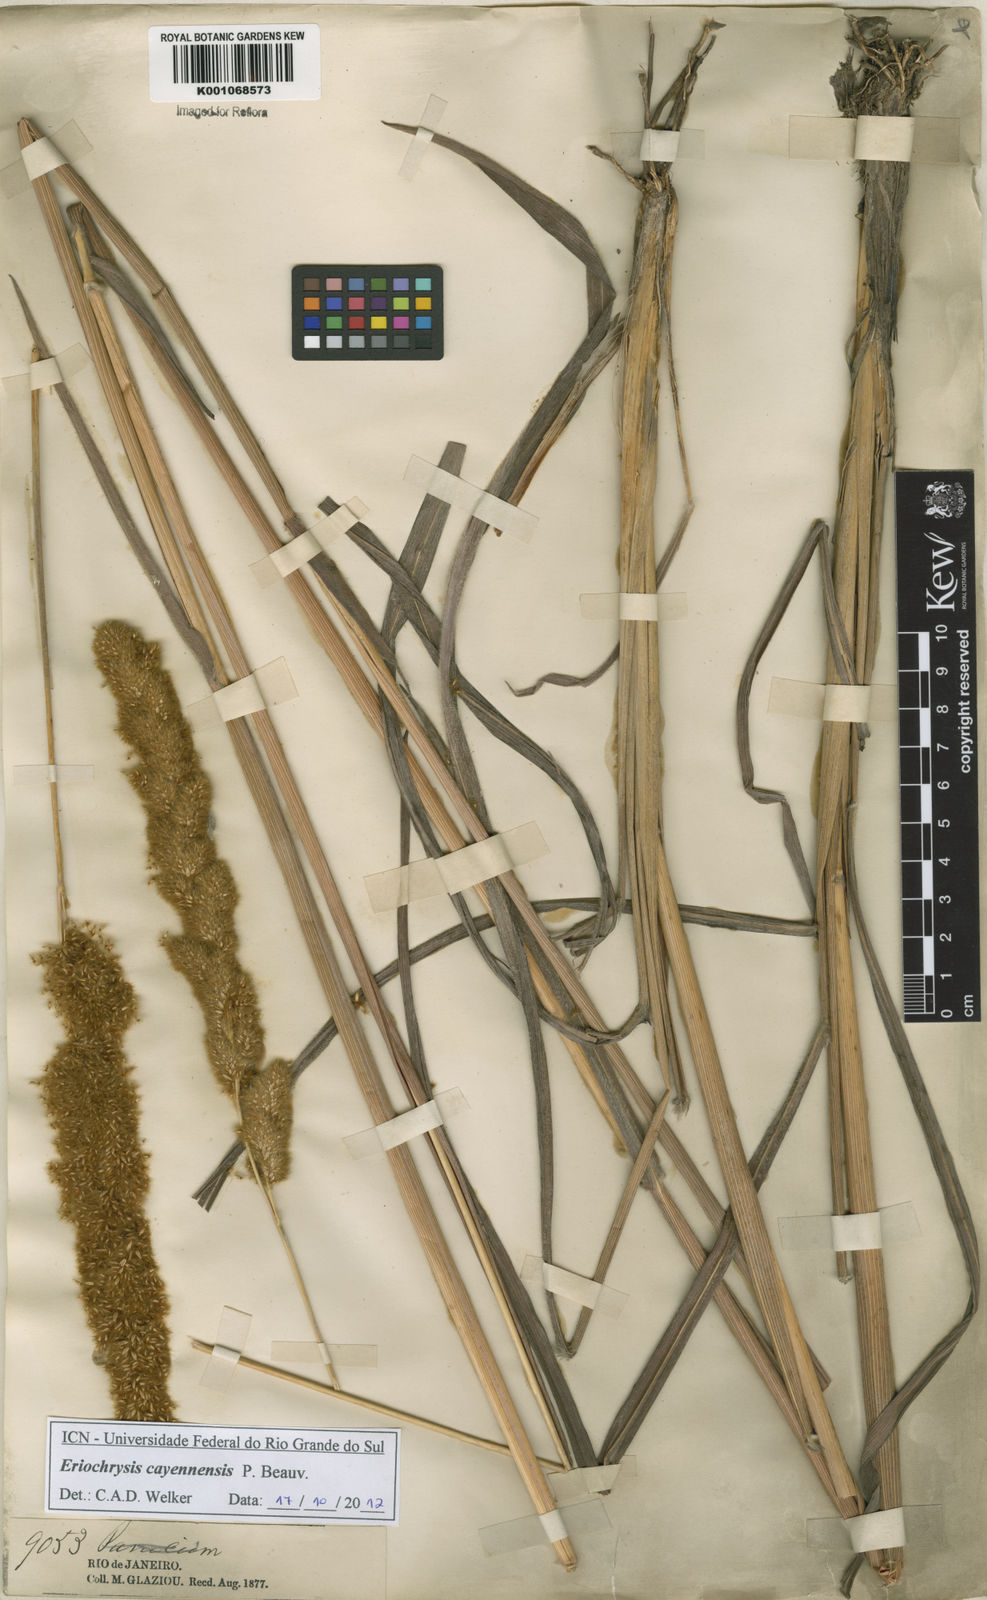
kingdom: Plantae
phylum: Tracheophyta
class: Liliopsida
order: Poales
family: Poaceae
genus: Eriochrysis
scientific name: Eriochrysis cayennensis
